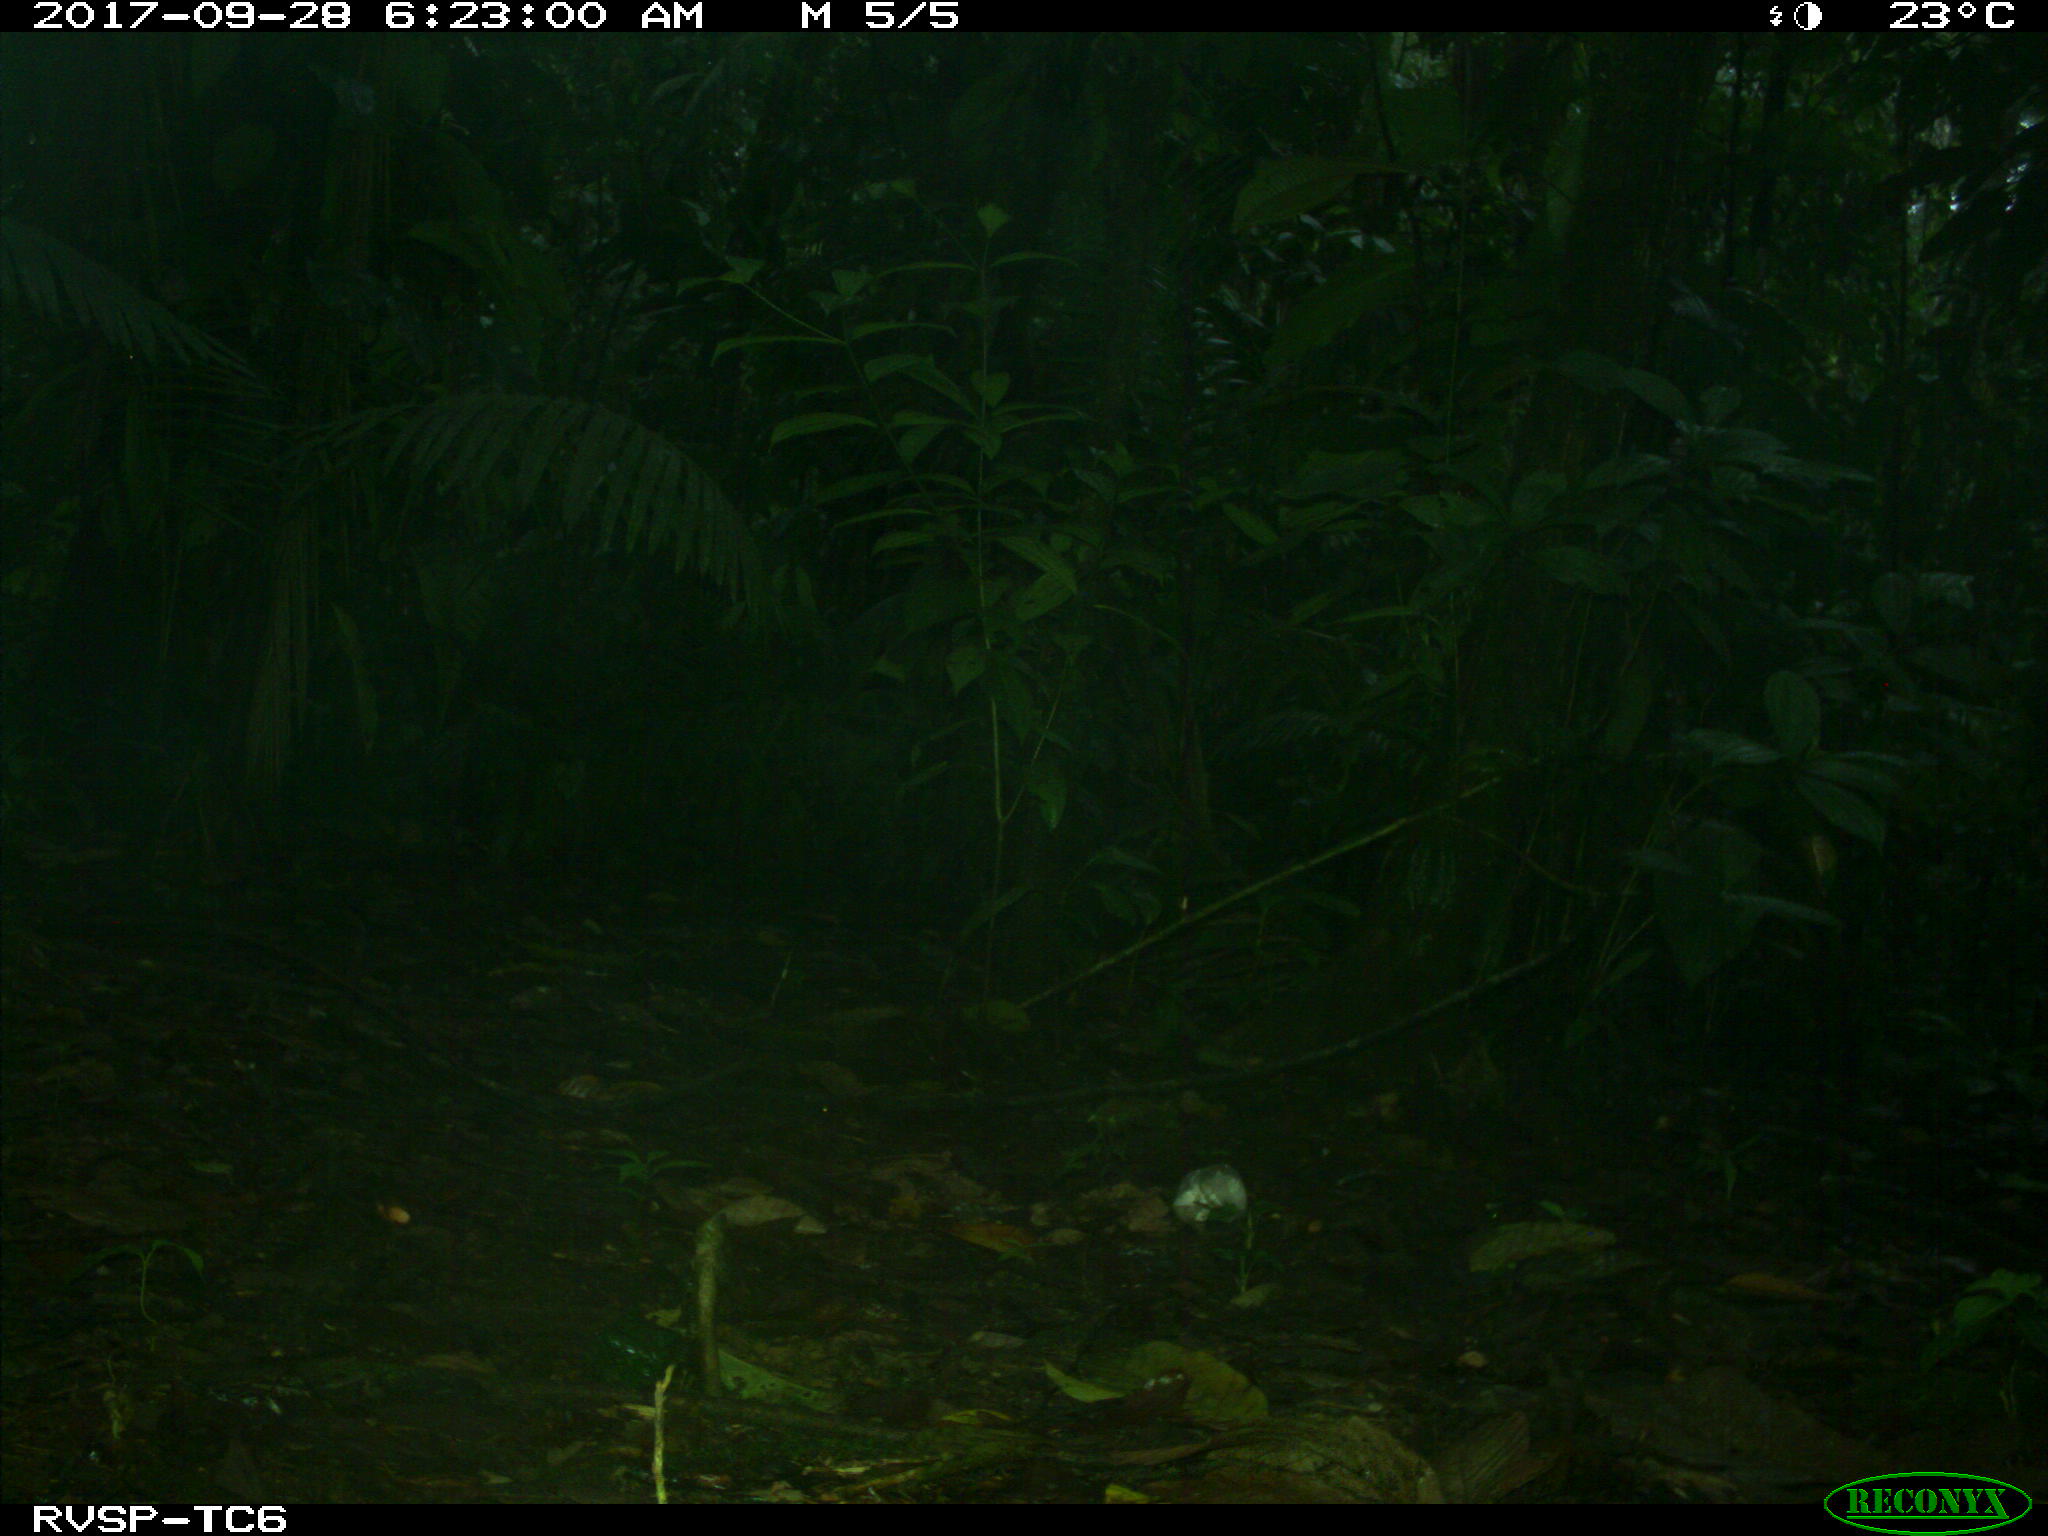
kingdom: Animalia
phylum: Chordata
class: Mammalia
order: Rodentia
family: Dasyproctidae
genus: Dasyprocta
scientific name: Dasyprocta punctata
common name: Central american agouti
